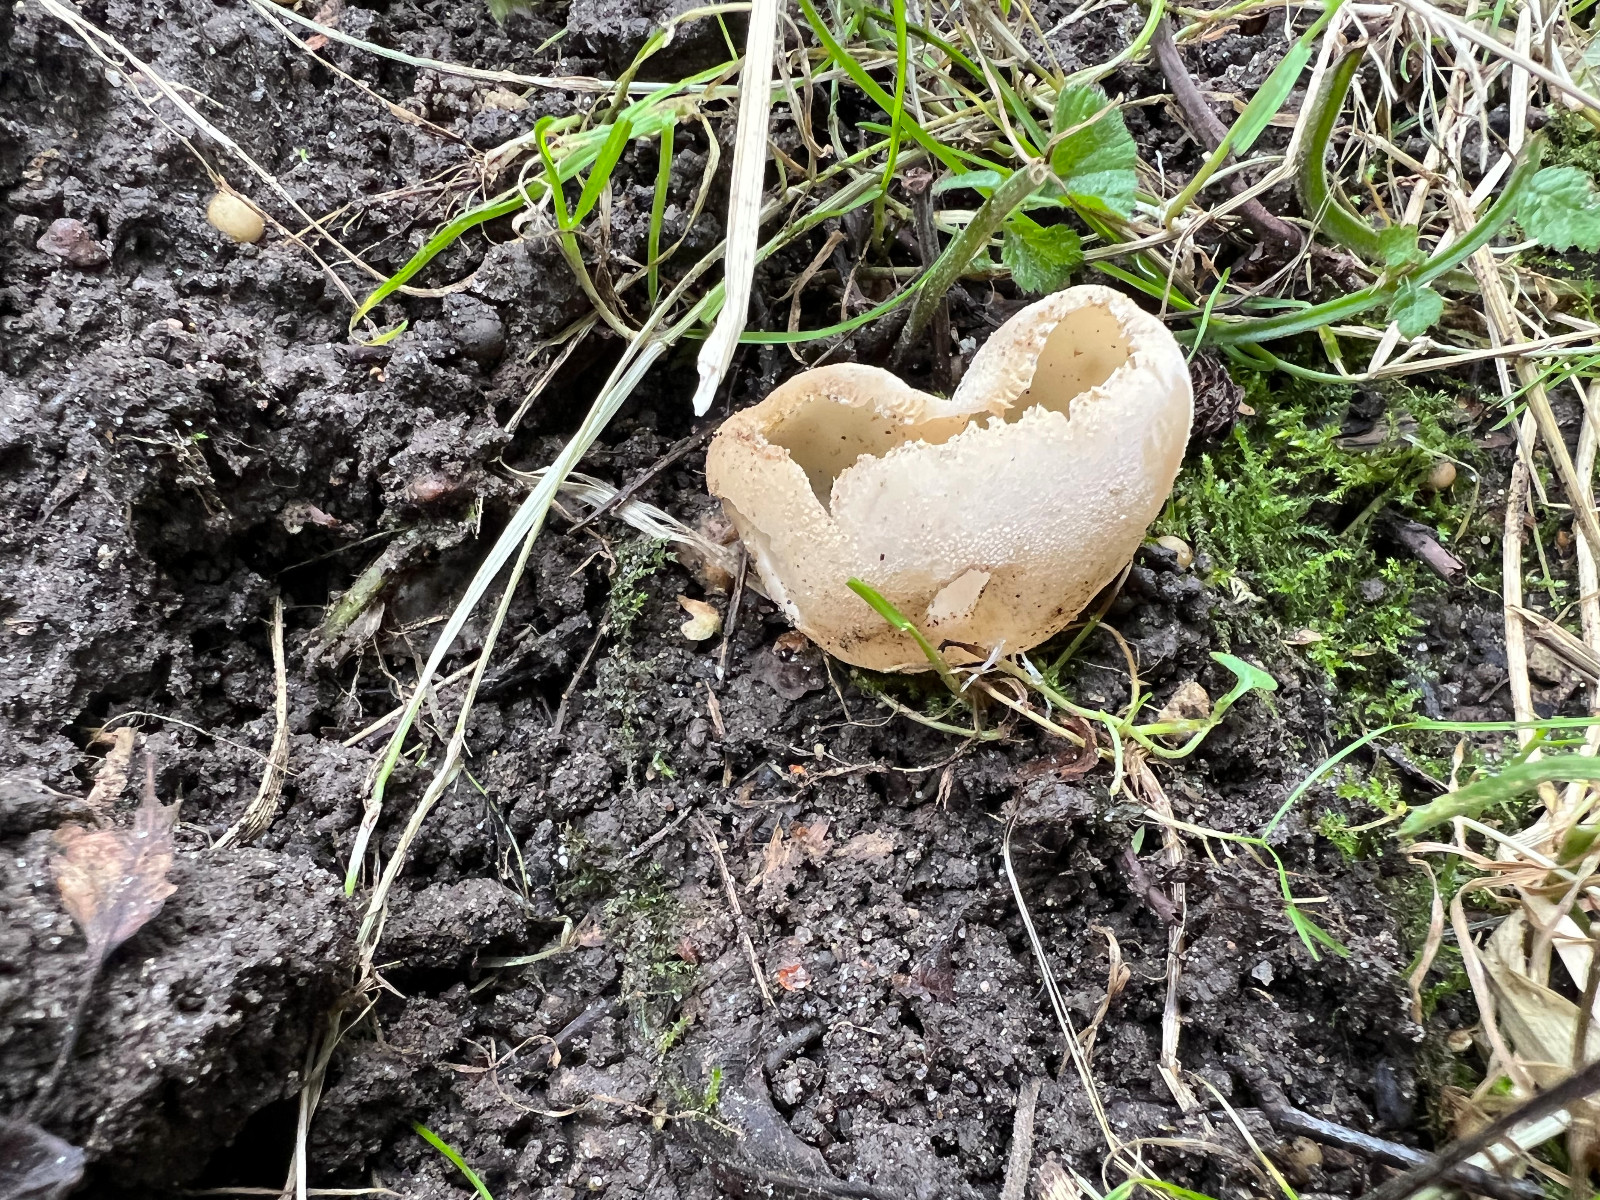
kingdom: Fungi
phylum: Ascomycota
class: Pezizomycetes
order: Pezizales
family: Pyronemataceae
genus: Tarzetta
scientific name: Tarzetta
